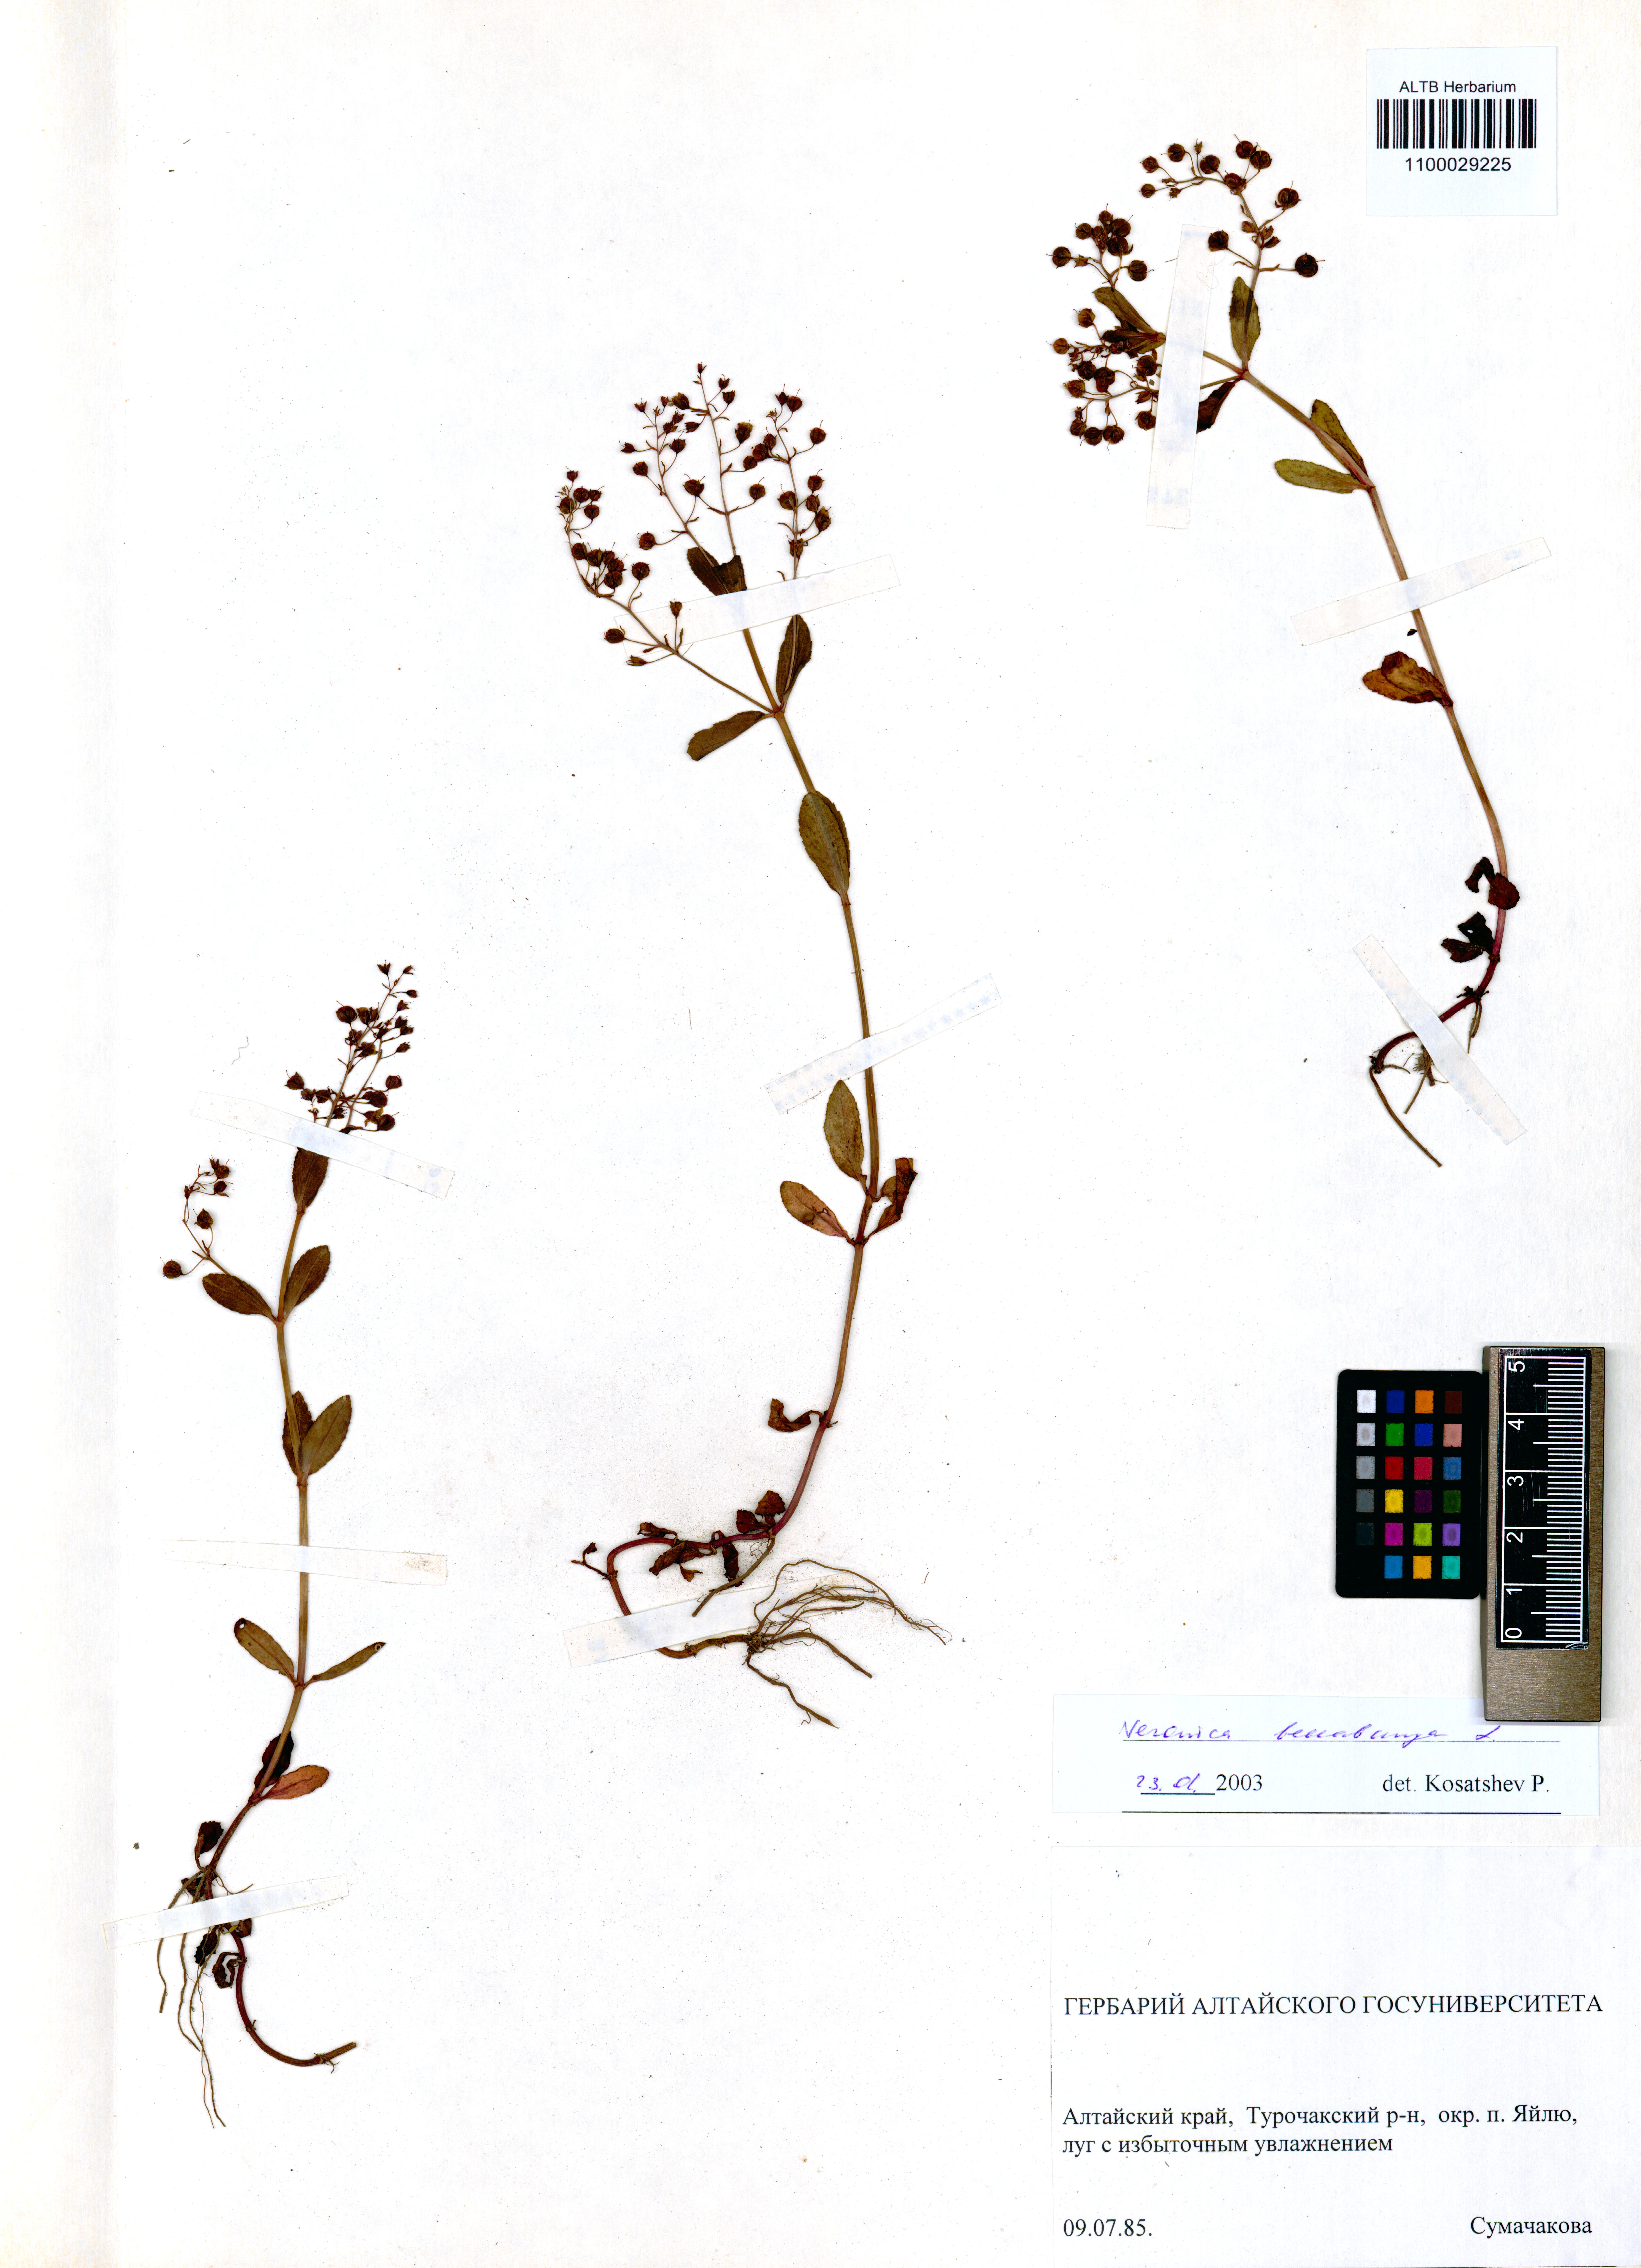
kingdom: Plantae
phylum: Tracheophyta
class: Magnoliopsida
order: Lamiales
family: Plantaginaceae
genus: Veronica
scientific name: Veronica beccabunga
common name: Brooklime
